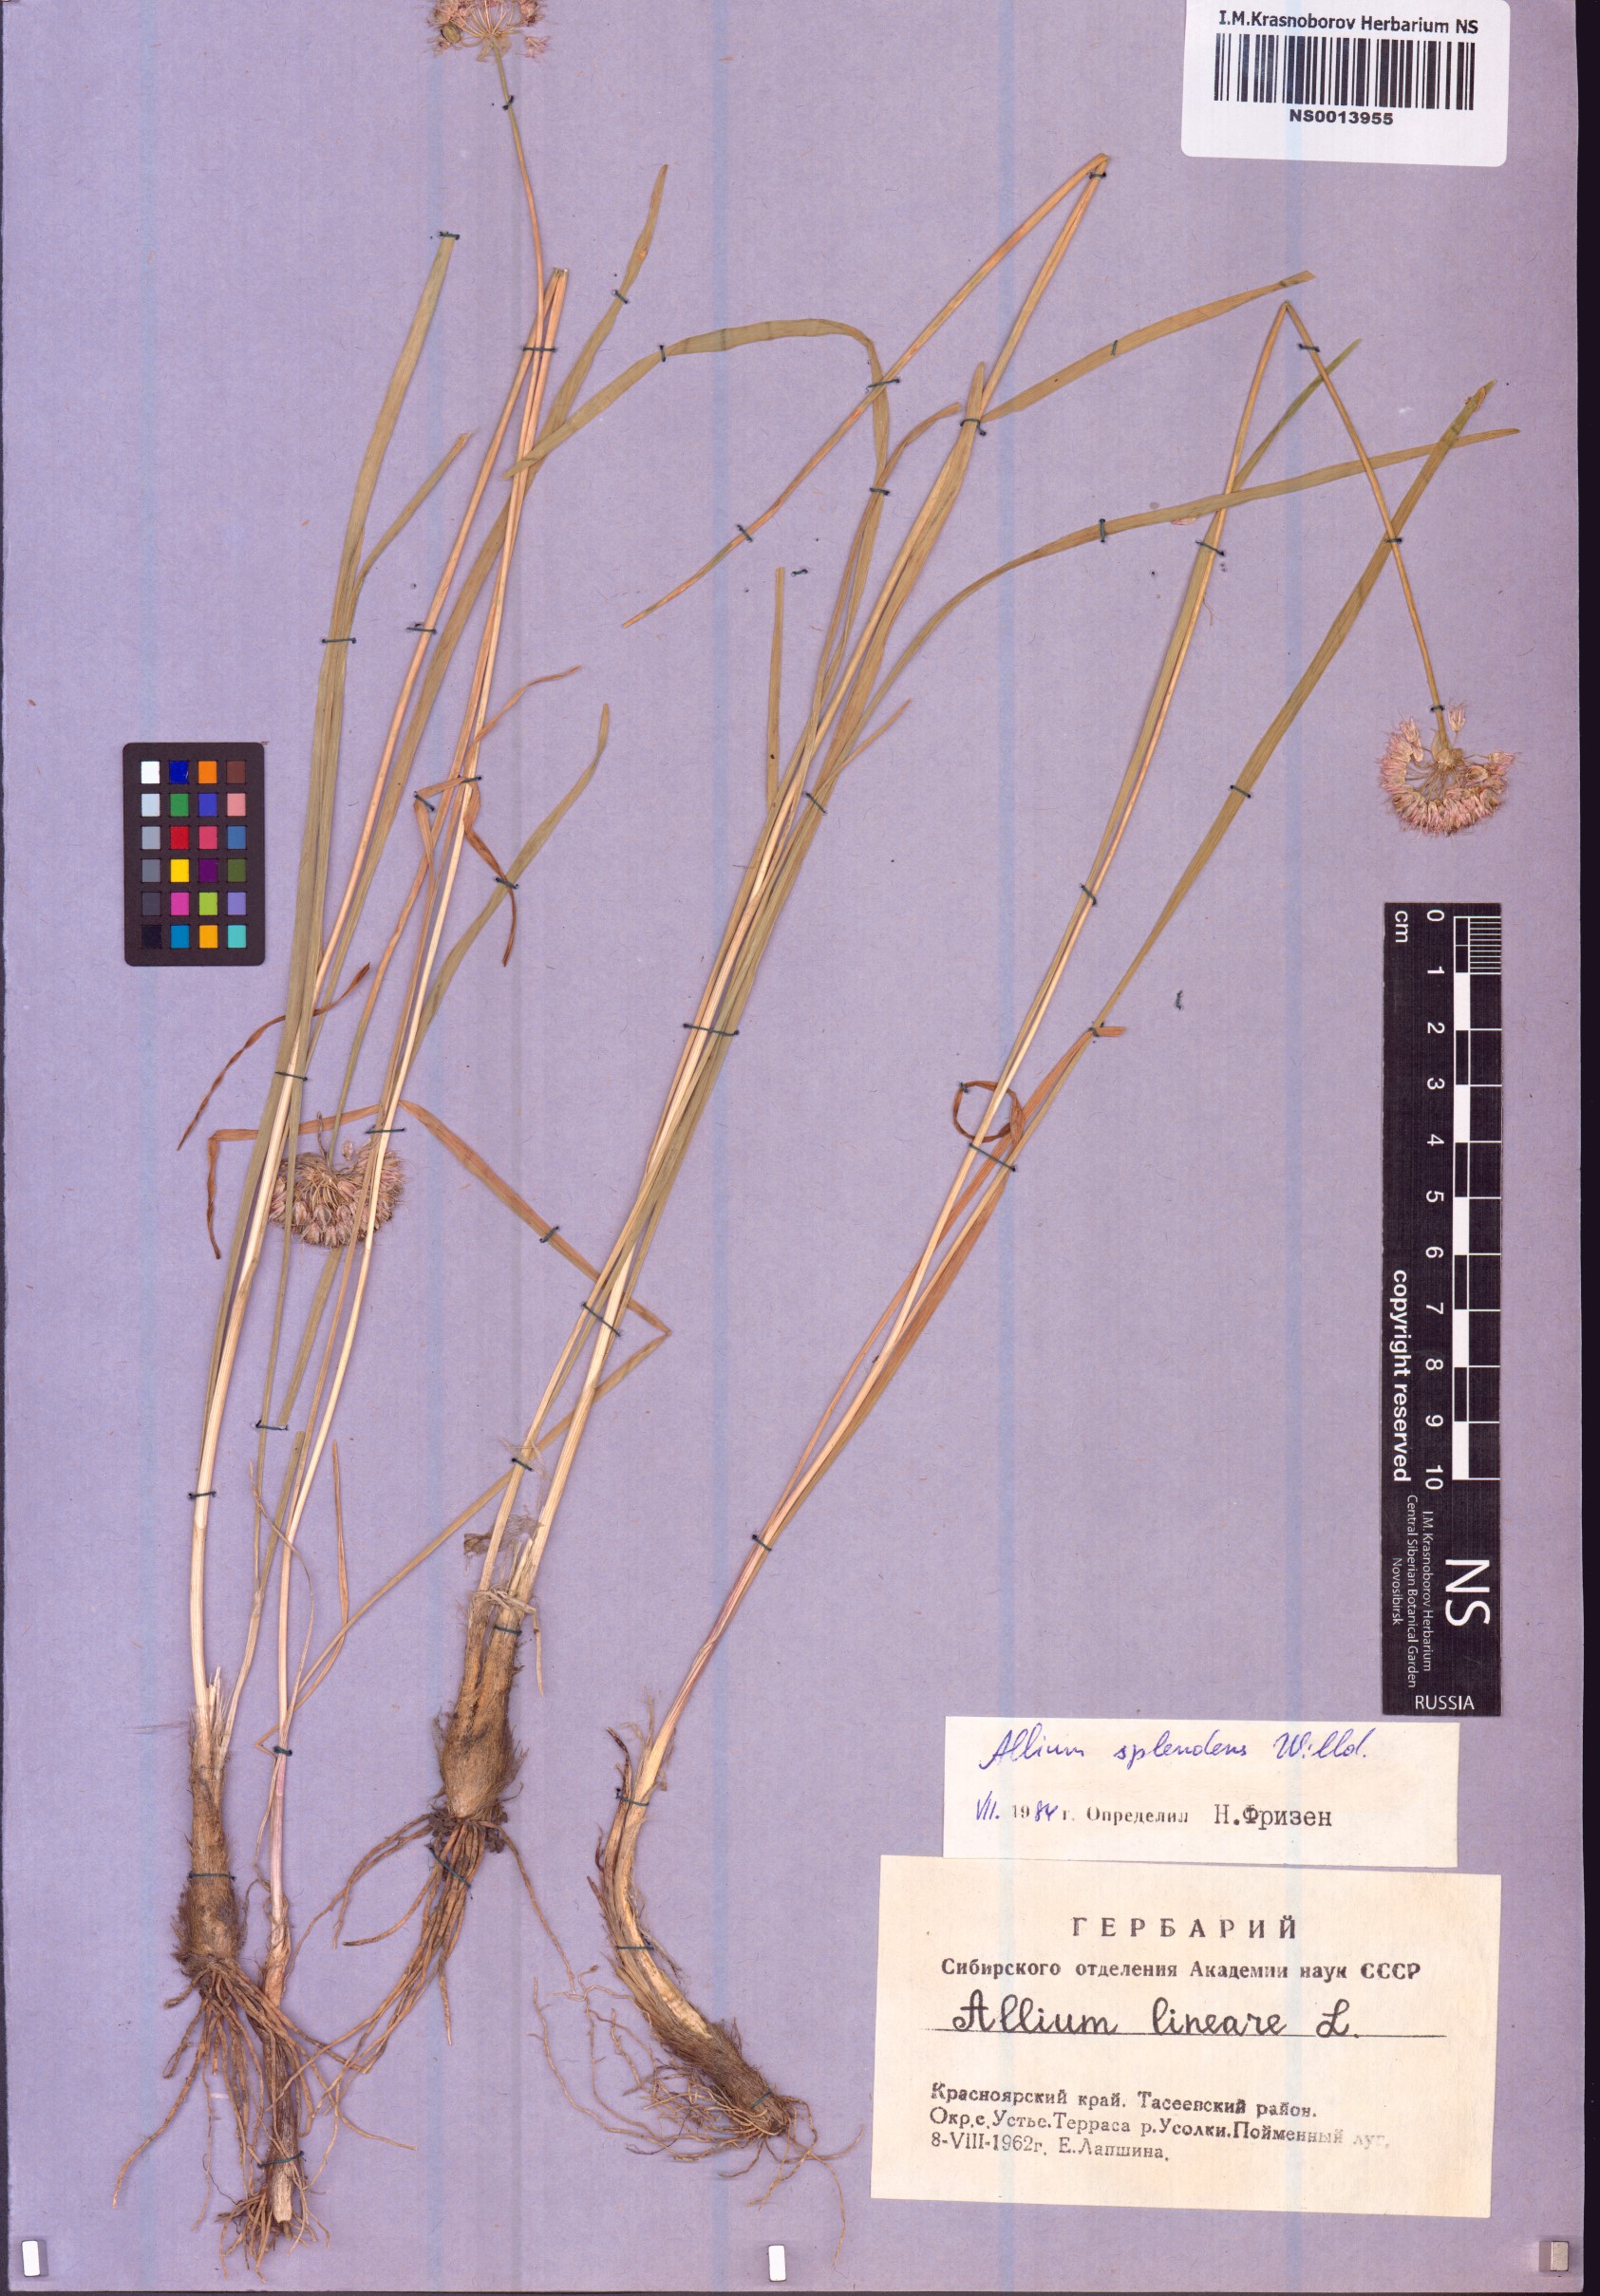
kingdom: Plantae
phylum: Tracheophyta
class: Liliopsida
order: Asparagales
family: Amaryllidaceae
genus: Allium
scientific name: Allium splendens
